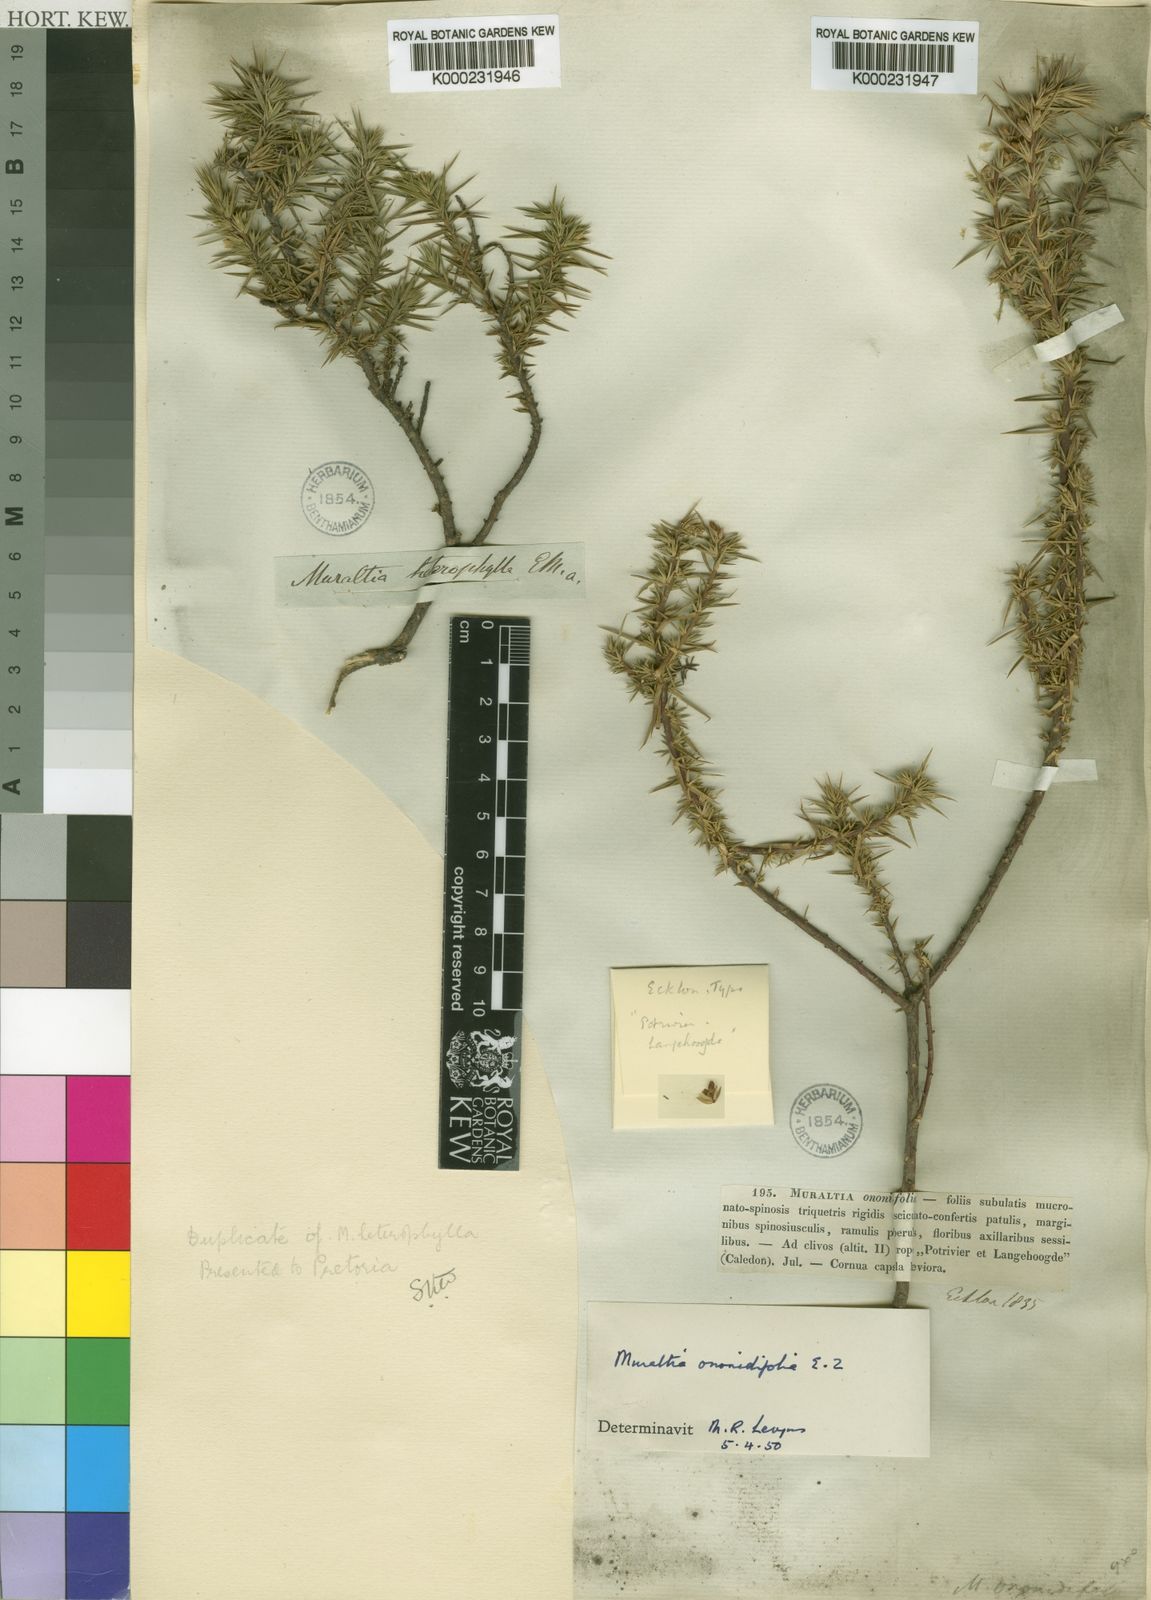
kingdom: Plantae
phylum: Tracheophyta
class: Magnoliopsida
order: Fabales
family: Polygalaceae
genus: Muraltia
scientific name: Muraltia ononidifolia
